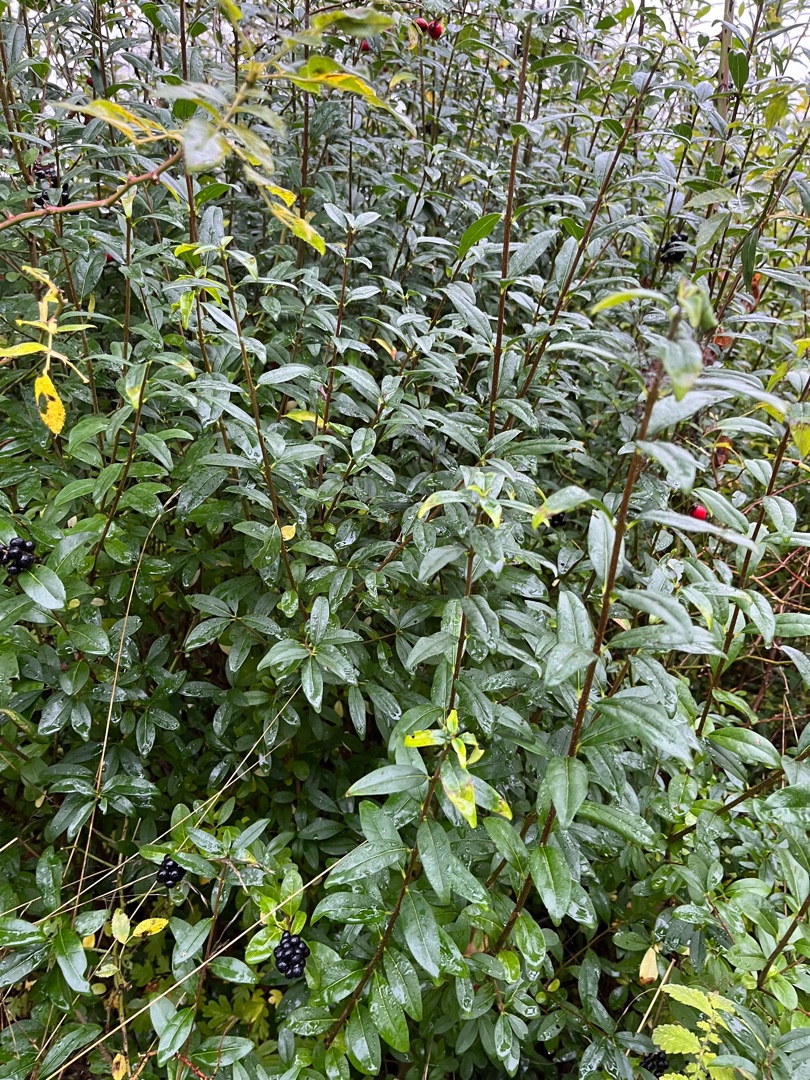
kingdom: Plantae
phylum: Tracheophyta
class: Magnoliopsida
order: Lamiales
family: Oleaceae
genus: Ligustrum
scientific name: Ligustrum vulgare
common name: Liguster
